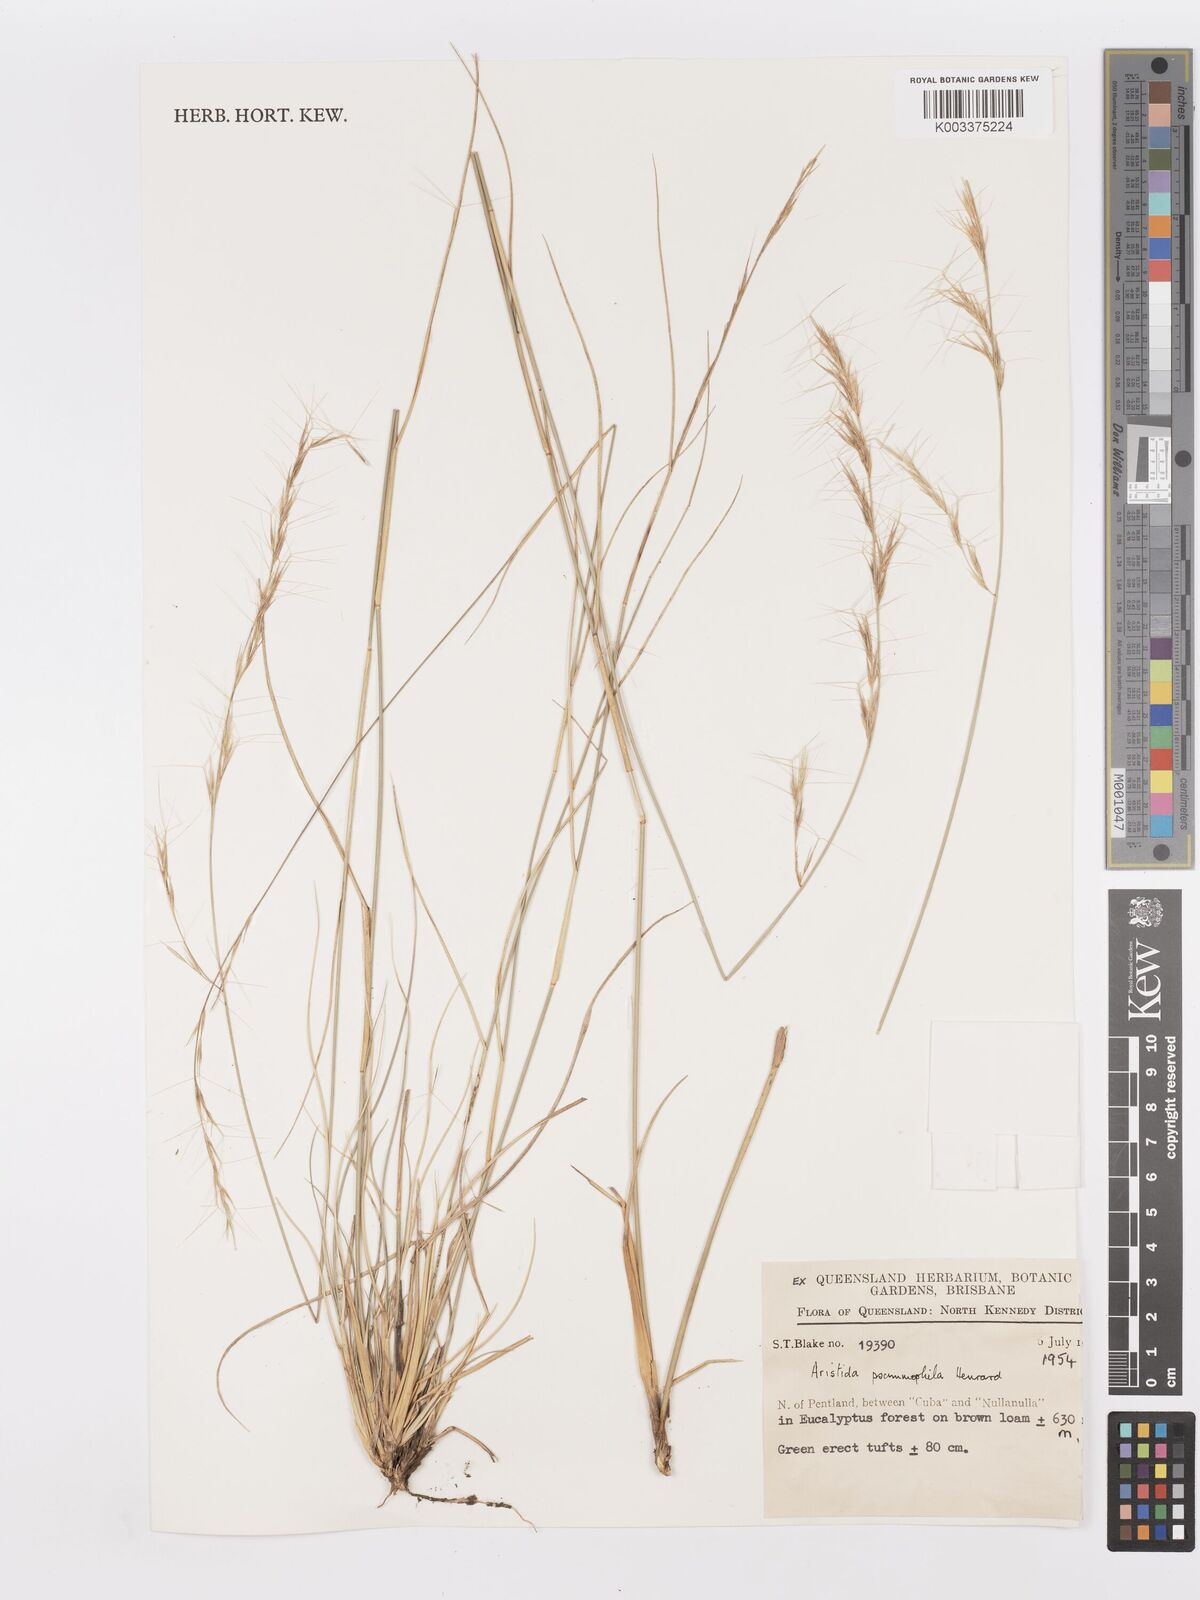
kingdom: Plantae
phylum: Tracheophyta
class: Liliopsida
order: Poales
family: Poaceae
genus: Aristida
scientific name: Aristida psammophila
